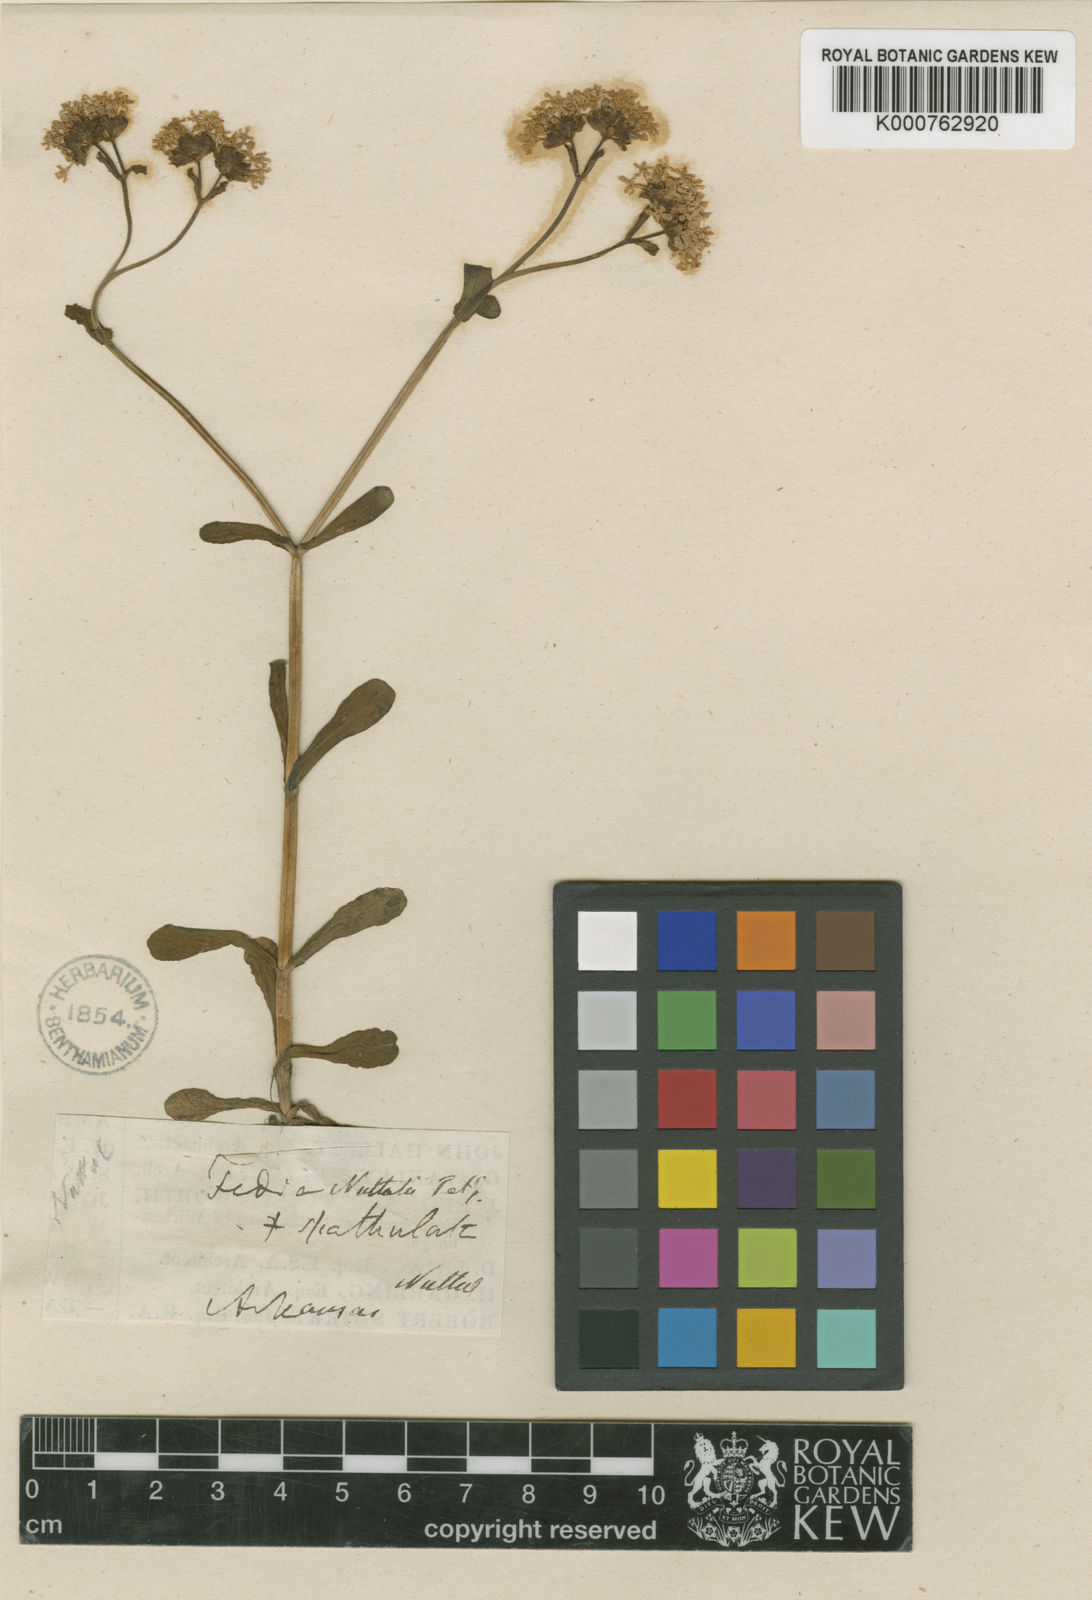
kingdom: Plantae
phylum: Tracheophyta
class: Magnoliopsida
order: Dipsacales
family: Caprifoliaceae
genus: Valerianella
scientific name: Valerianella
